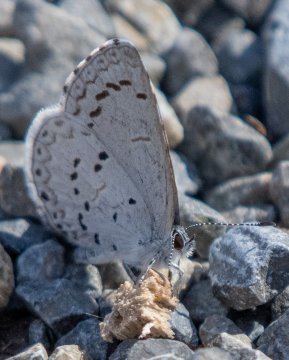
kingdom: Animalia
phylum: Arthropoda
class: Insecta
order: Lepidoptera
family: Lycaenidae
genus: Celastrina
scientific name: Celastrina ladon
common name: Spring Azure
